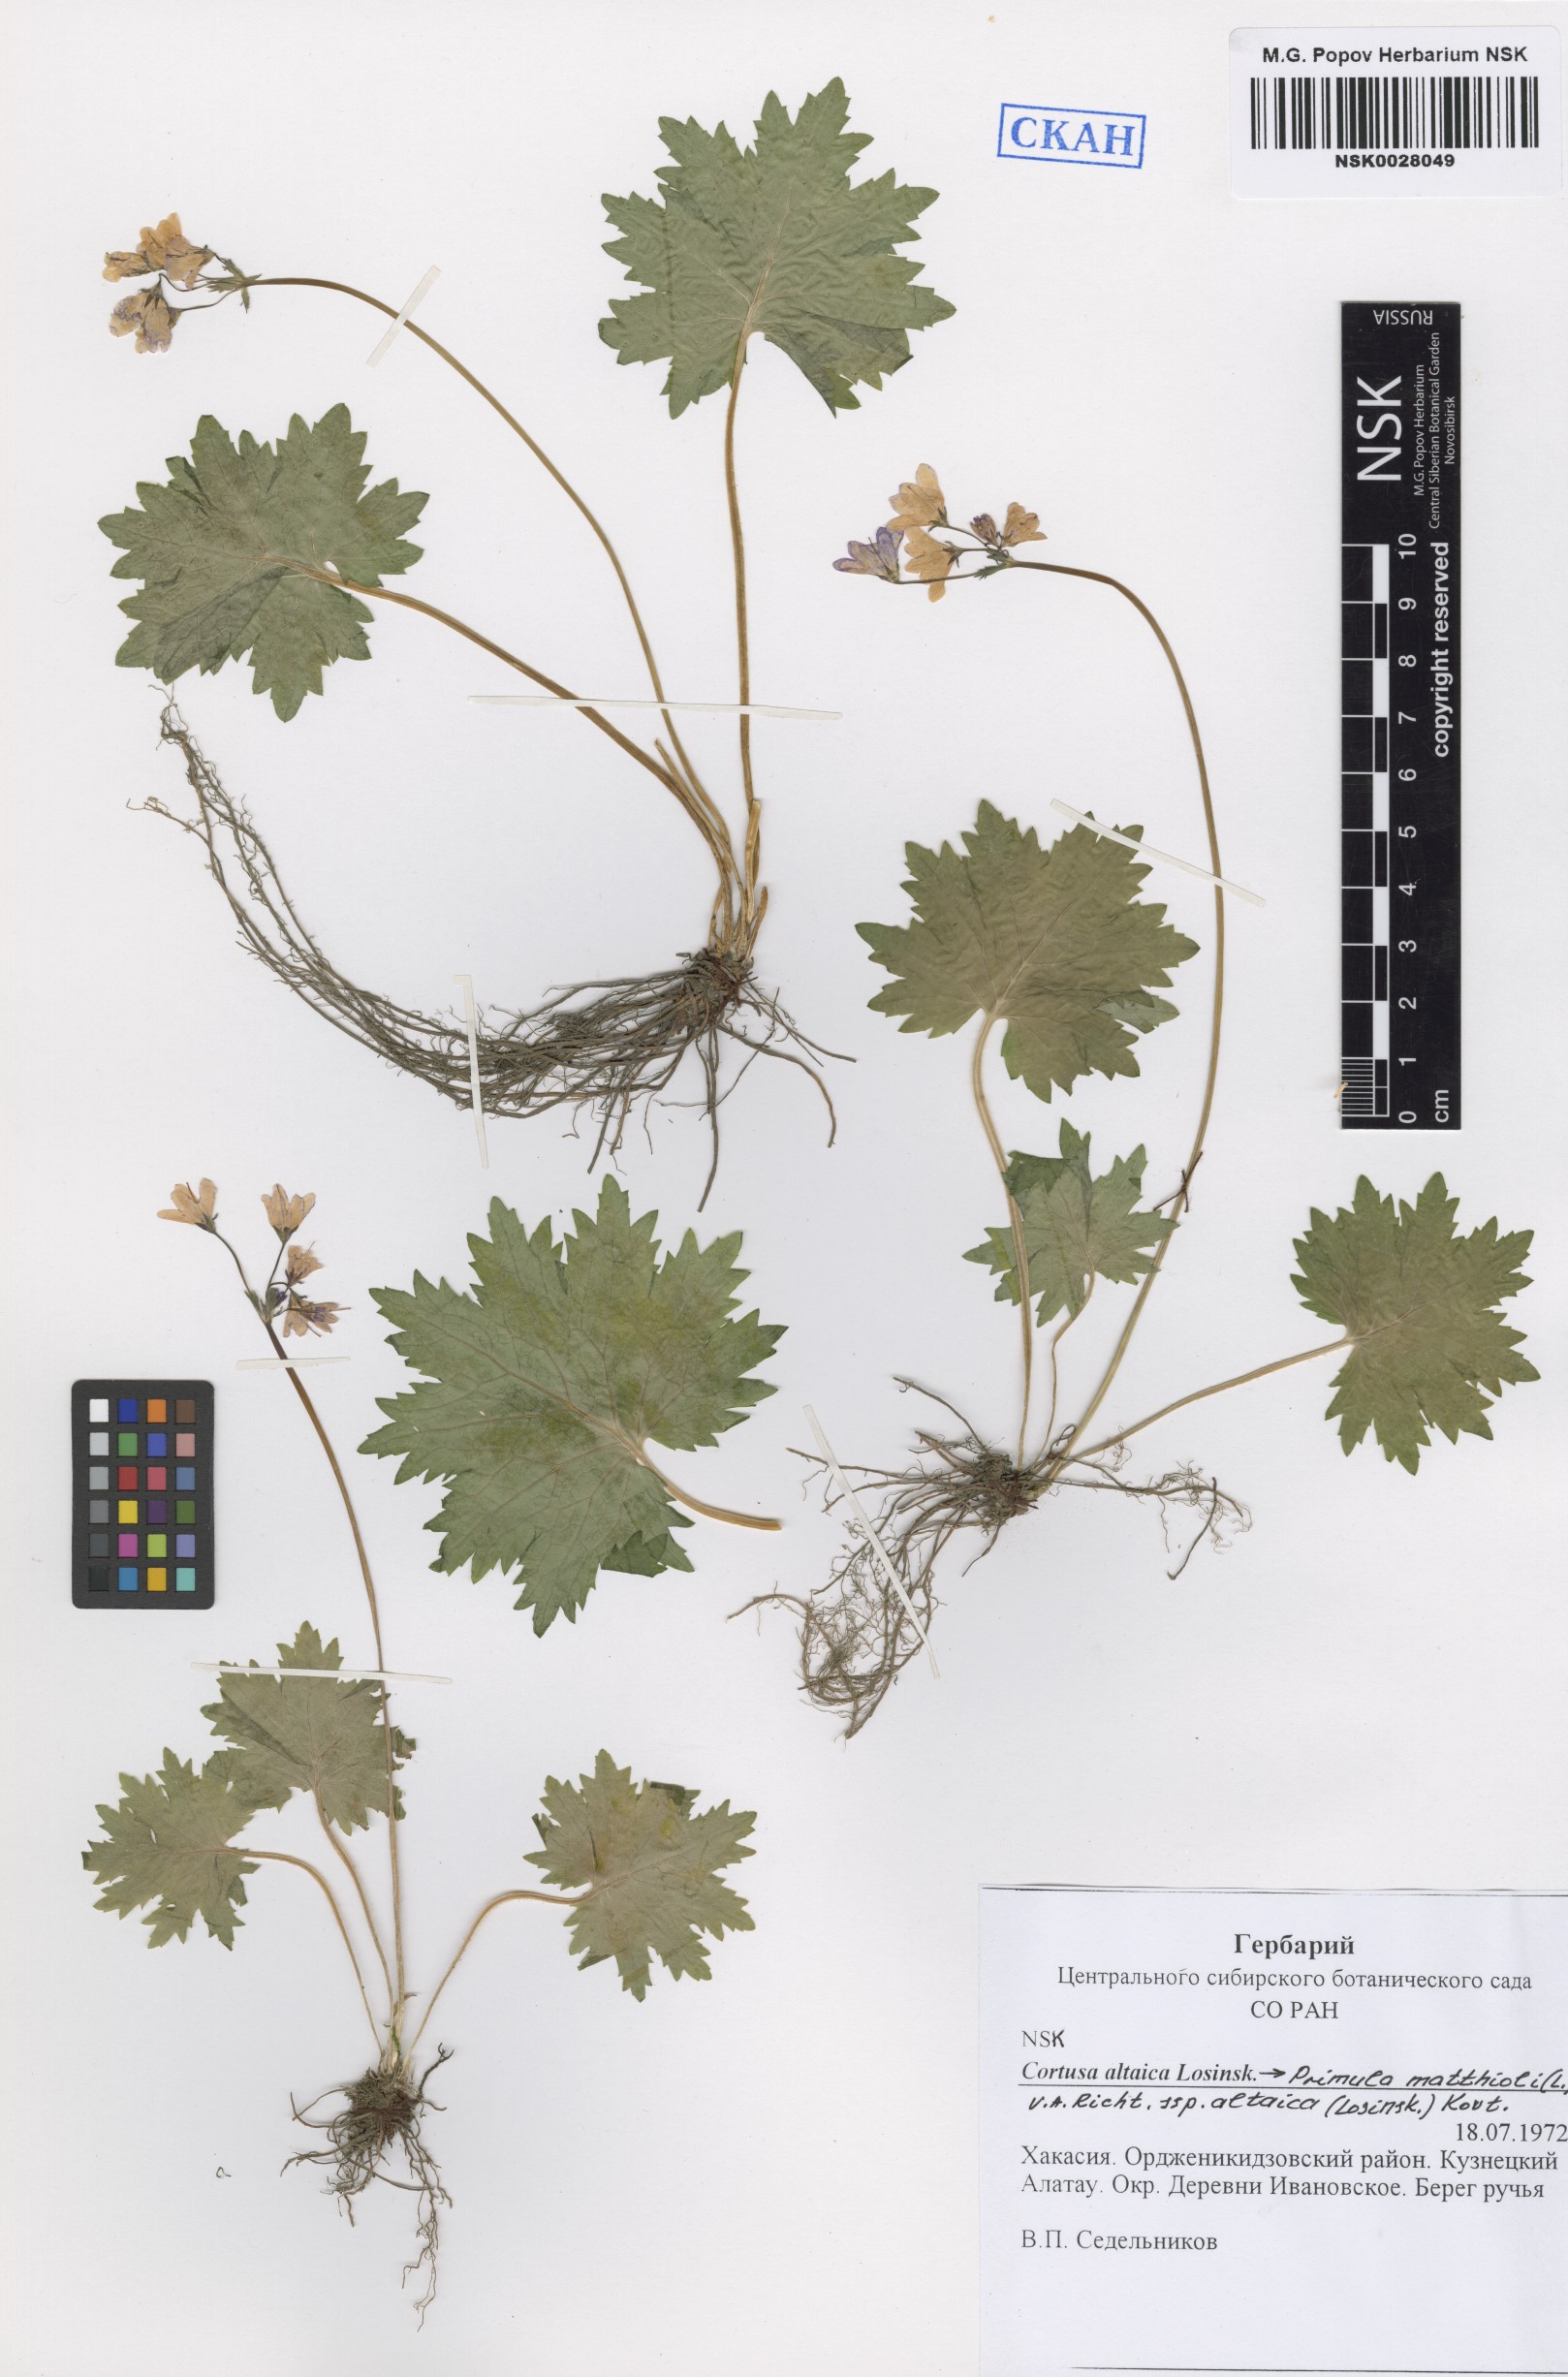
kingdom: Plantae
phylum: Tracheophyta
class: Magnoliopsida
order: Ericales
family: Primulaceae
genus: Primula
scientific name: Primula matthioli
